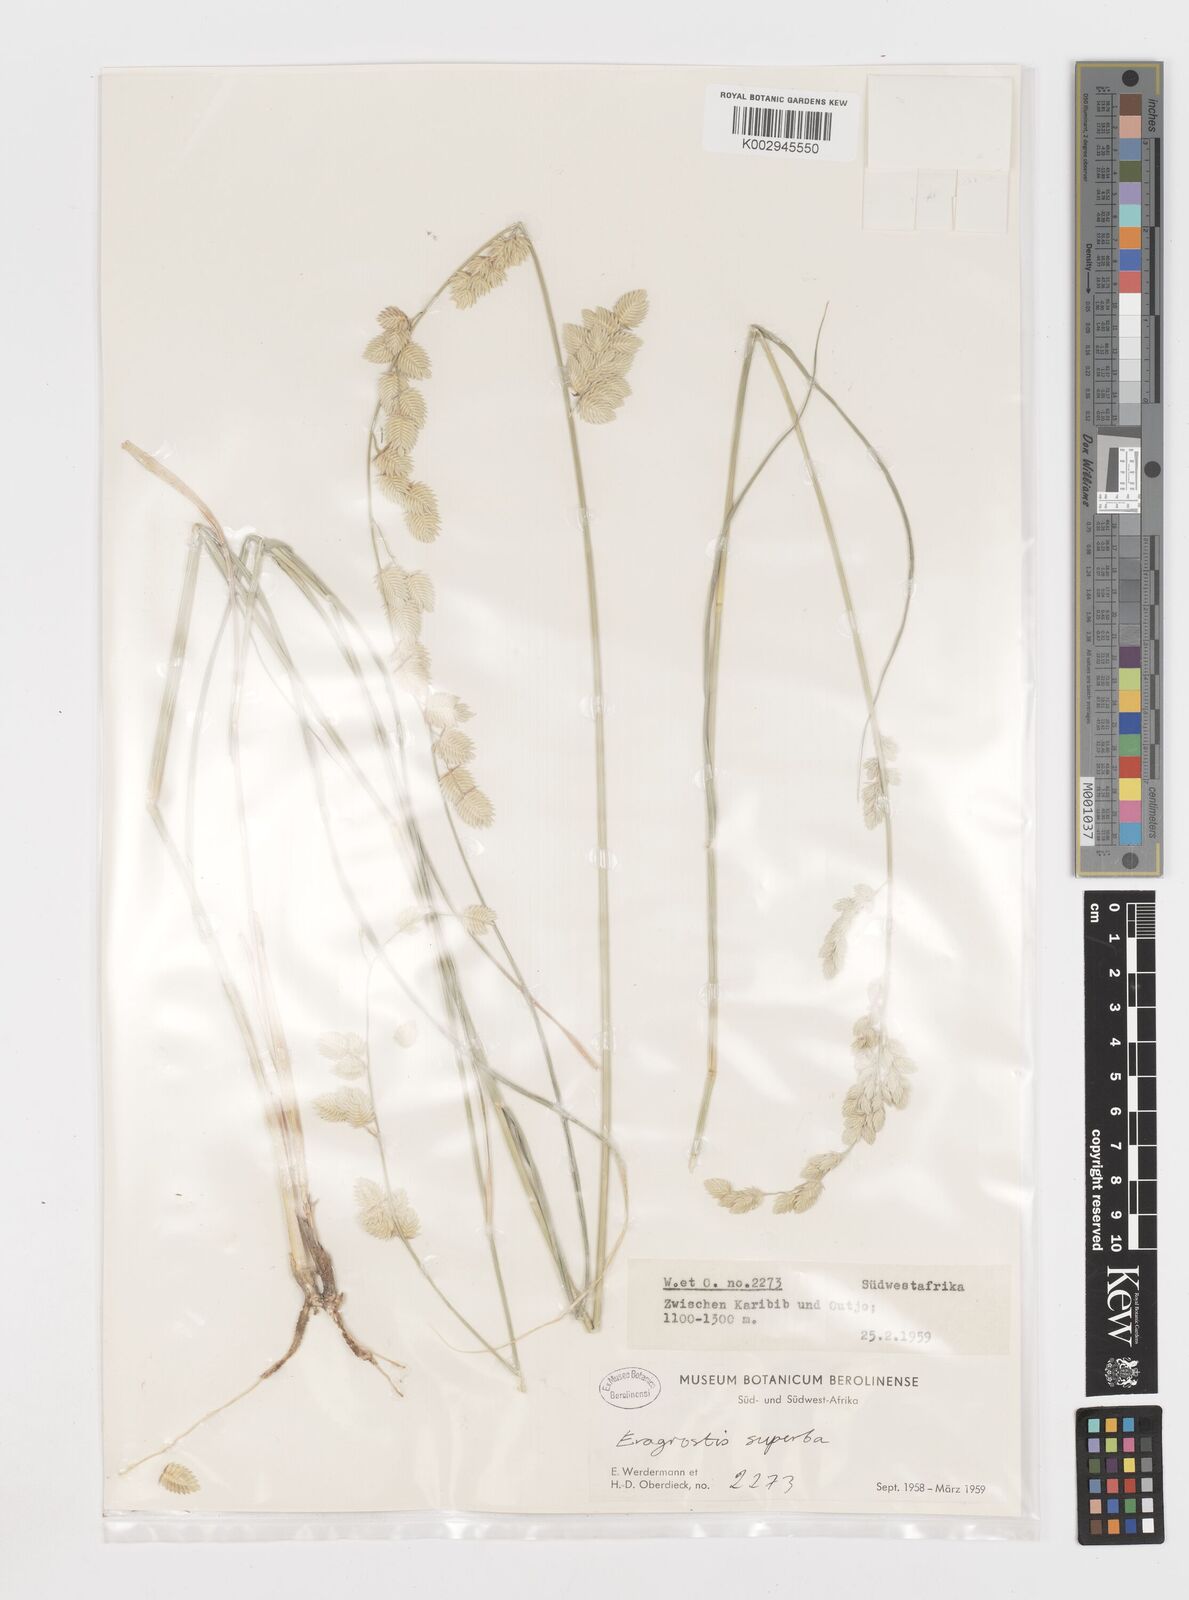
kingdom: Plantae
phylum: Tracheophyta
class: Liliopsida
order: Poales
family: Poaceae
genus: Eragrostis
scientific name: Eragrostis superba
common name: Wilman lovegrass
